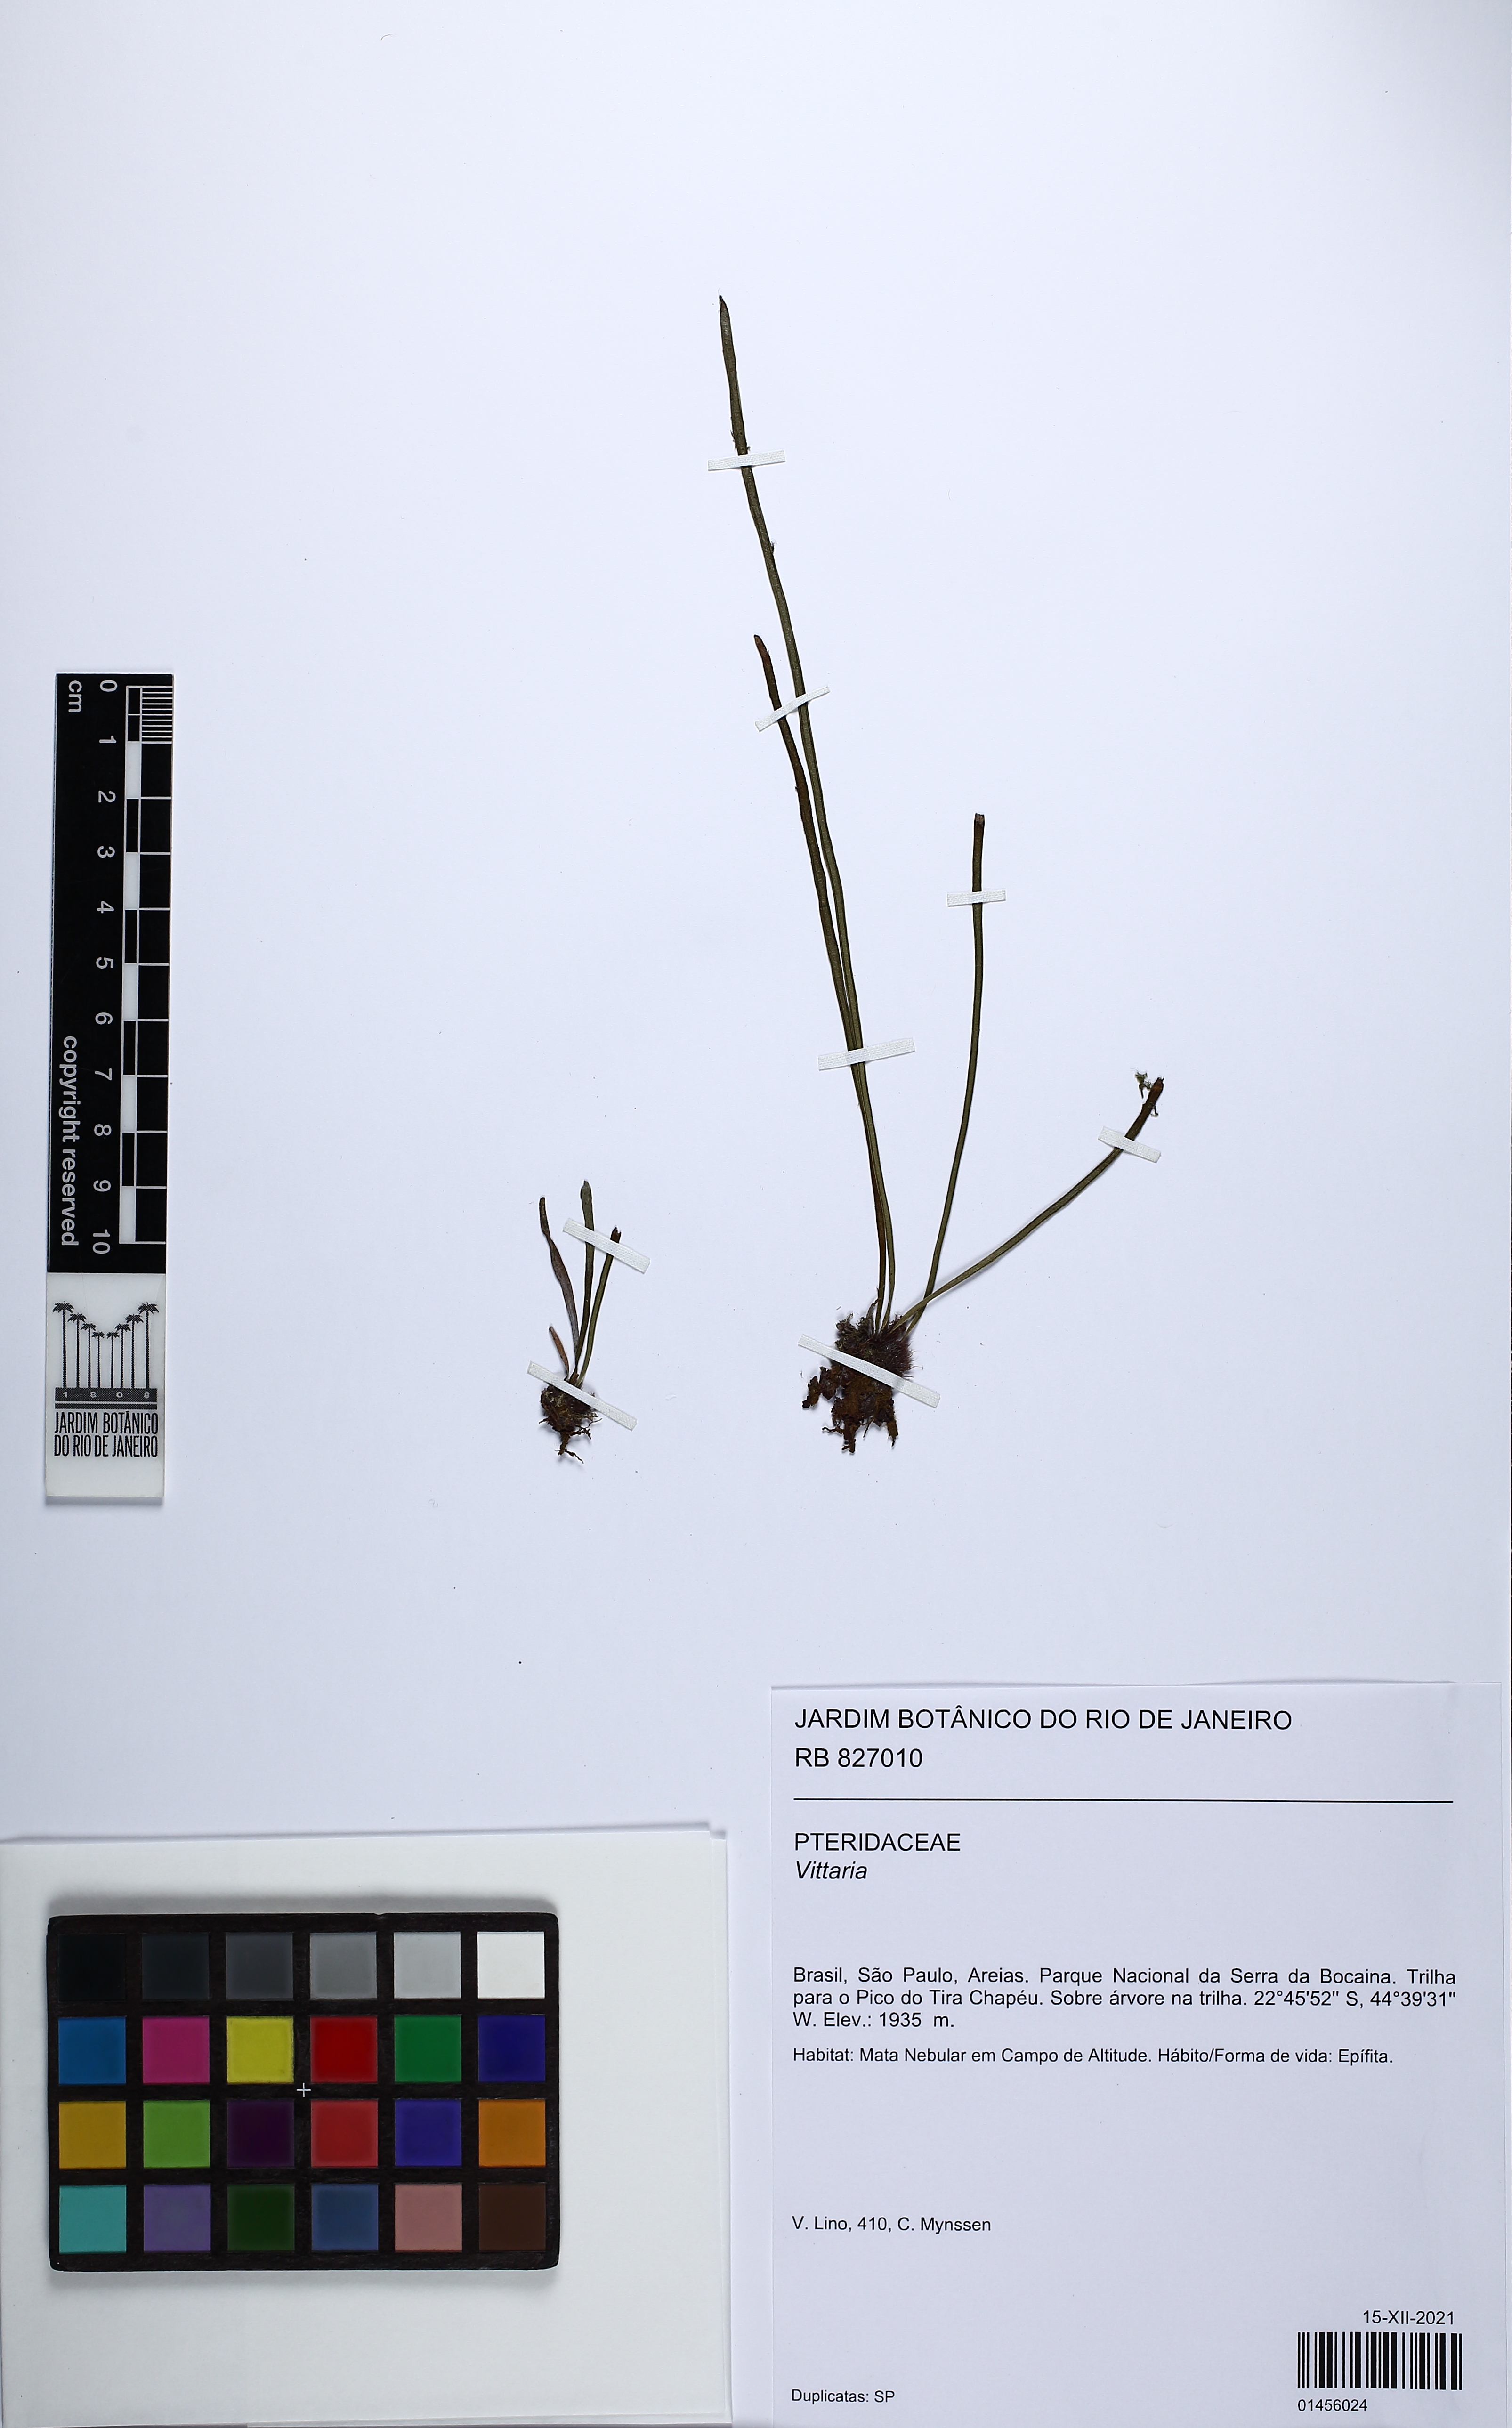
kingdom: Plantae
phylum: Tracheophyta
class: Polypodiopsida
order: Polypodiales
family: Pteridaceae
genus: Vittaria
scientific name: Vittaria
